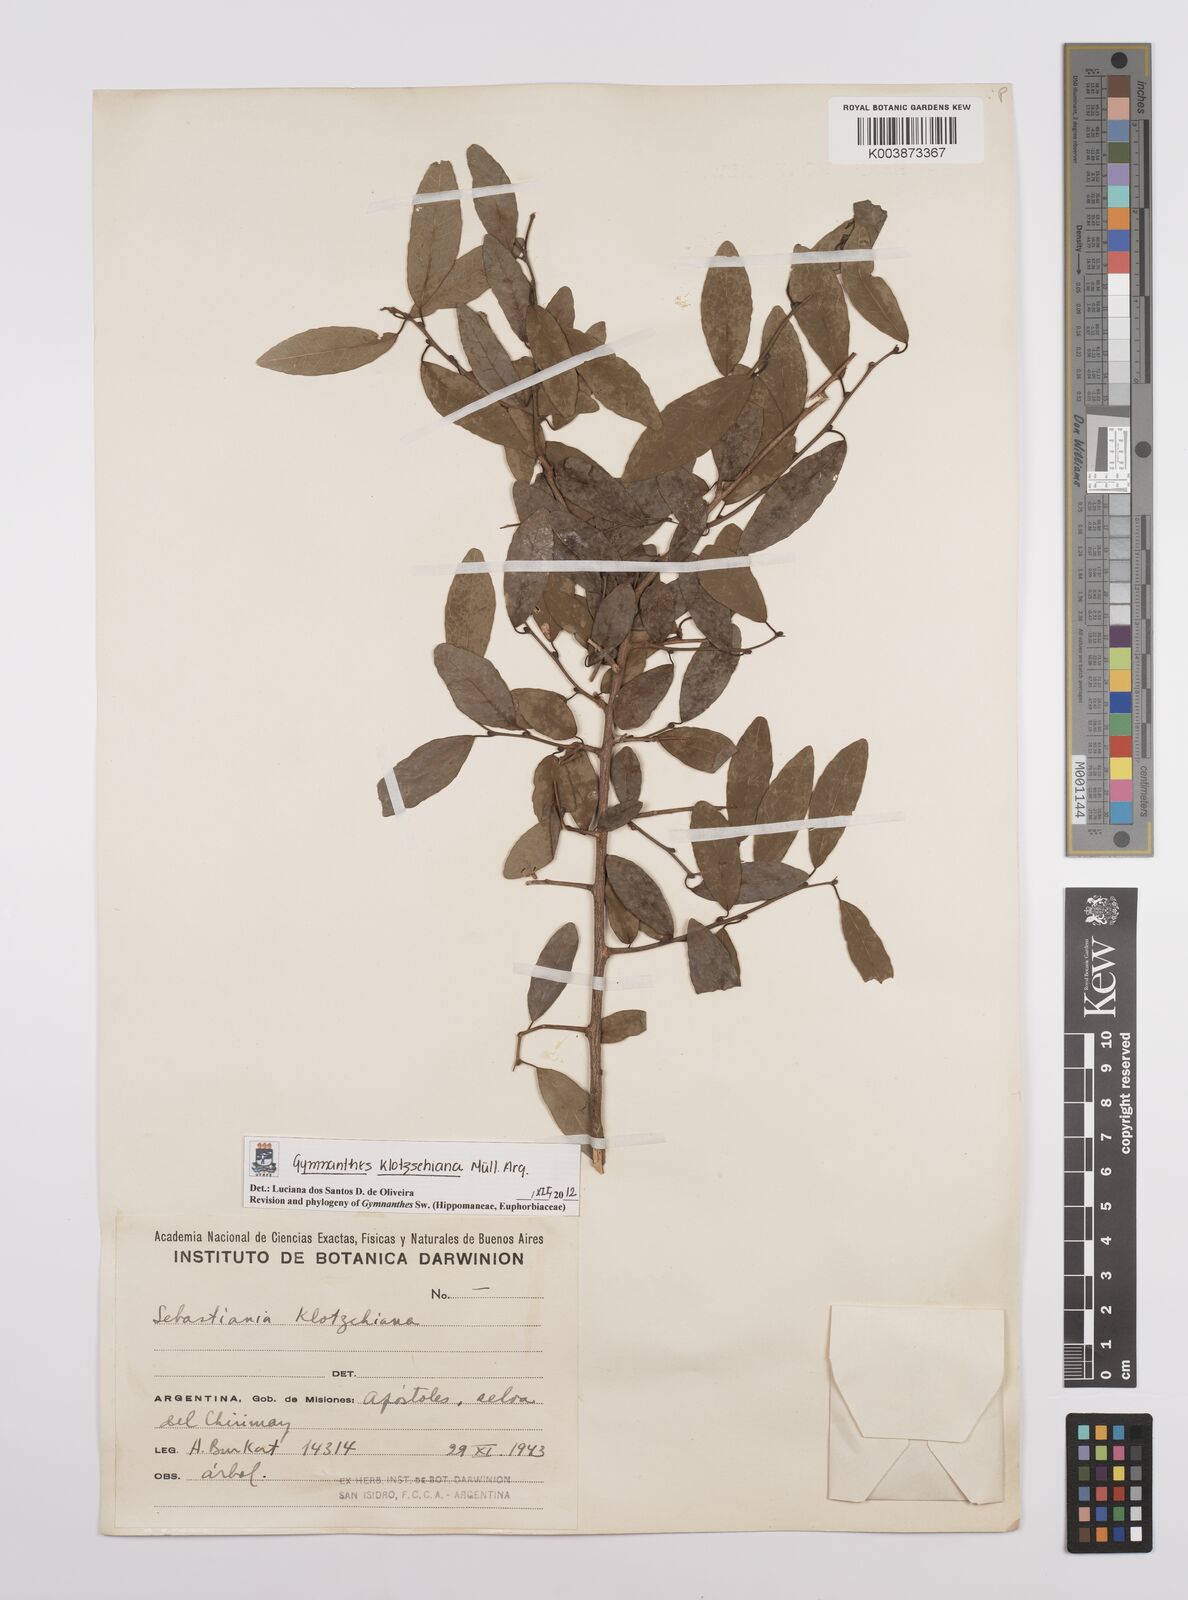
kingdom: Plantae
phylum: Tracheophyta
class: Magnoliopsida
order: Malpighiales
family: Euphorbiaceae
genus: Sebastiania
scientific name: Sebastiania klotzschiana
